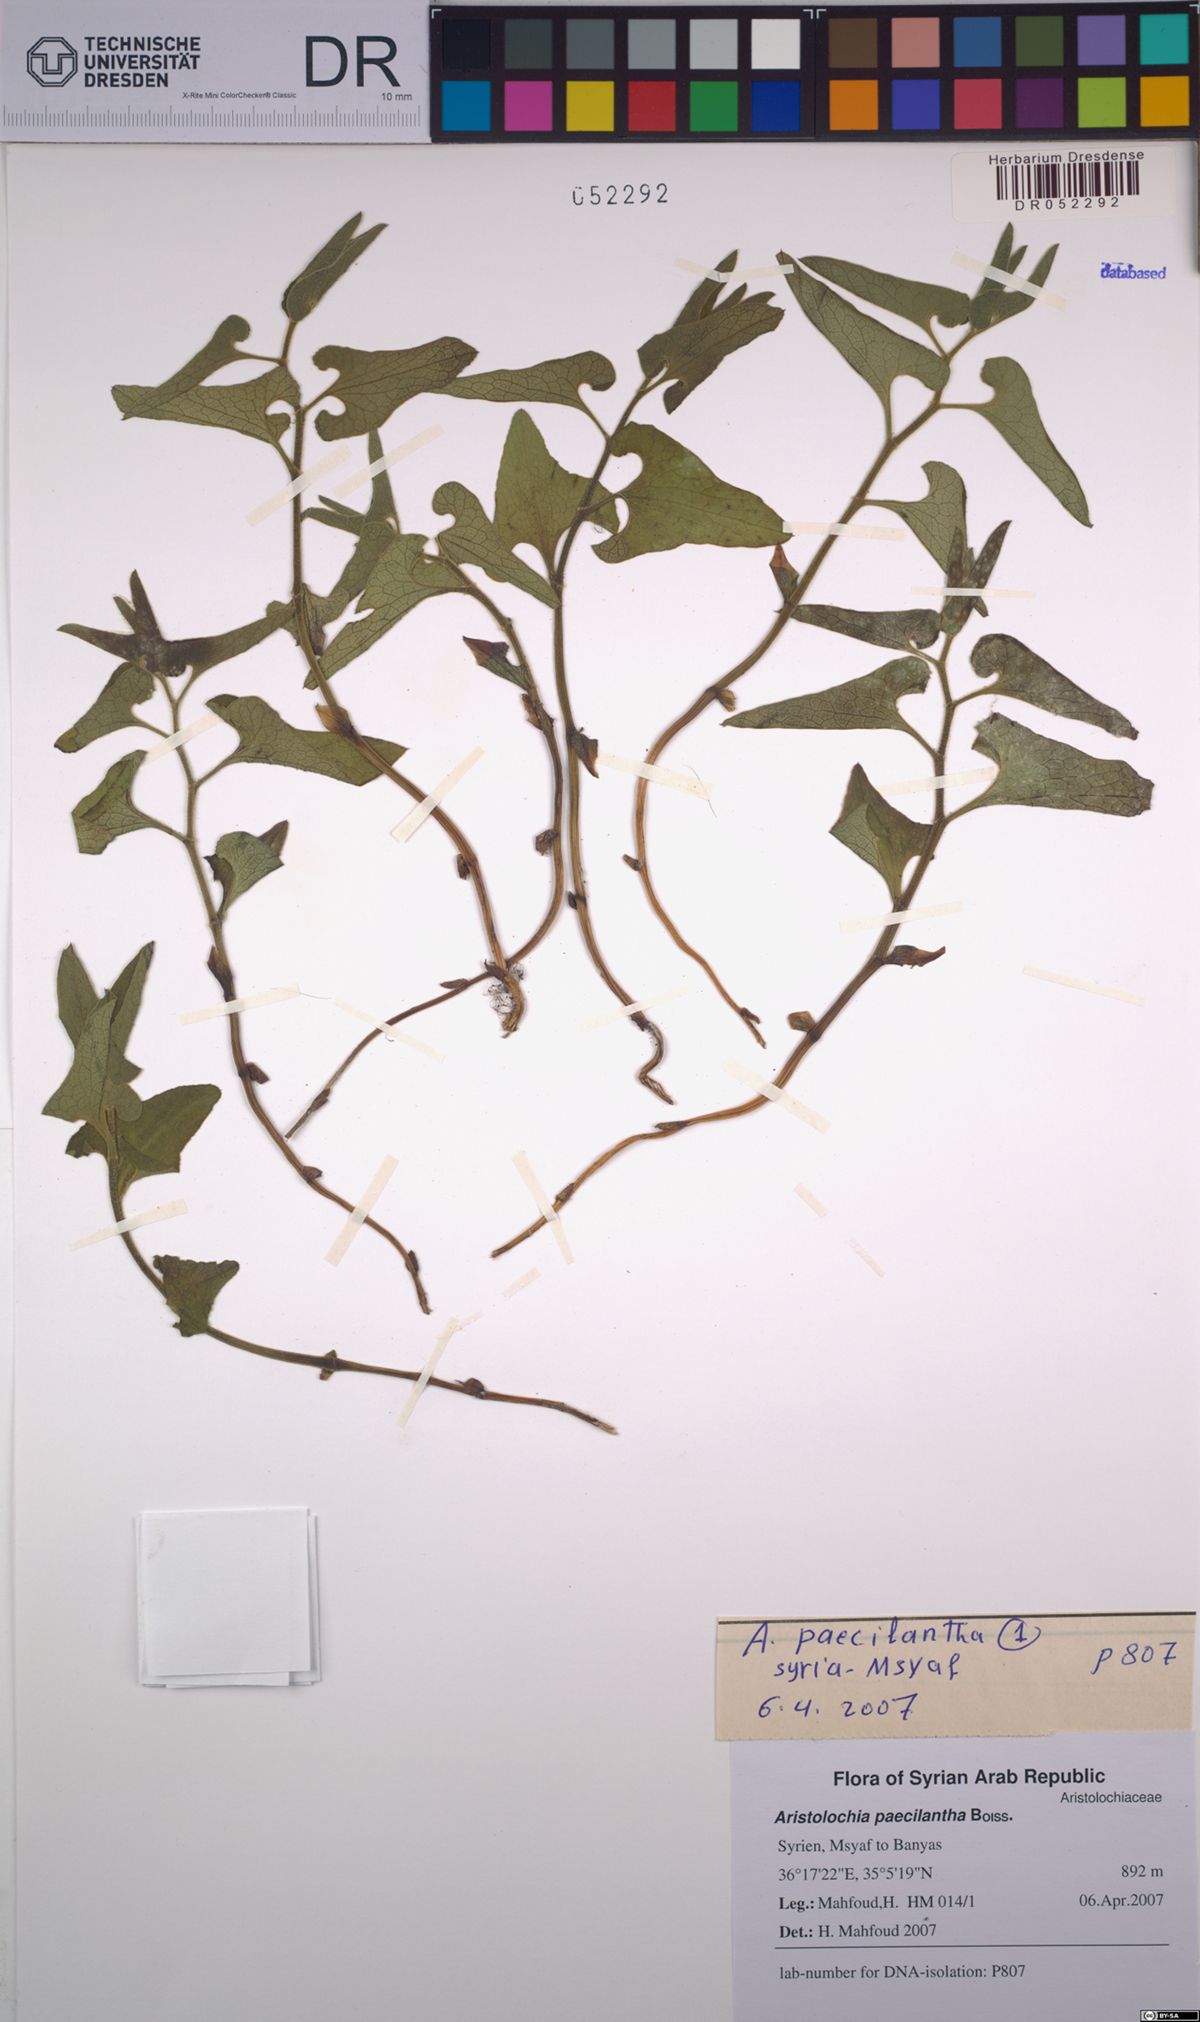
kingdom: Plantae
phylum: Tracheophyta
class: Magnoliopsida
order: Piperales
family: Aristolochiaceae
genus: Aristolochia
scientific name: Aristolochia paecilantha
